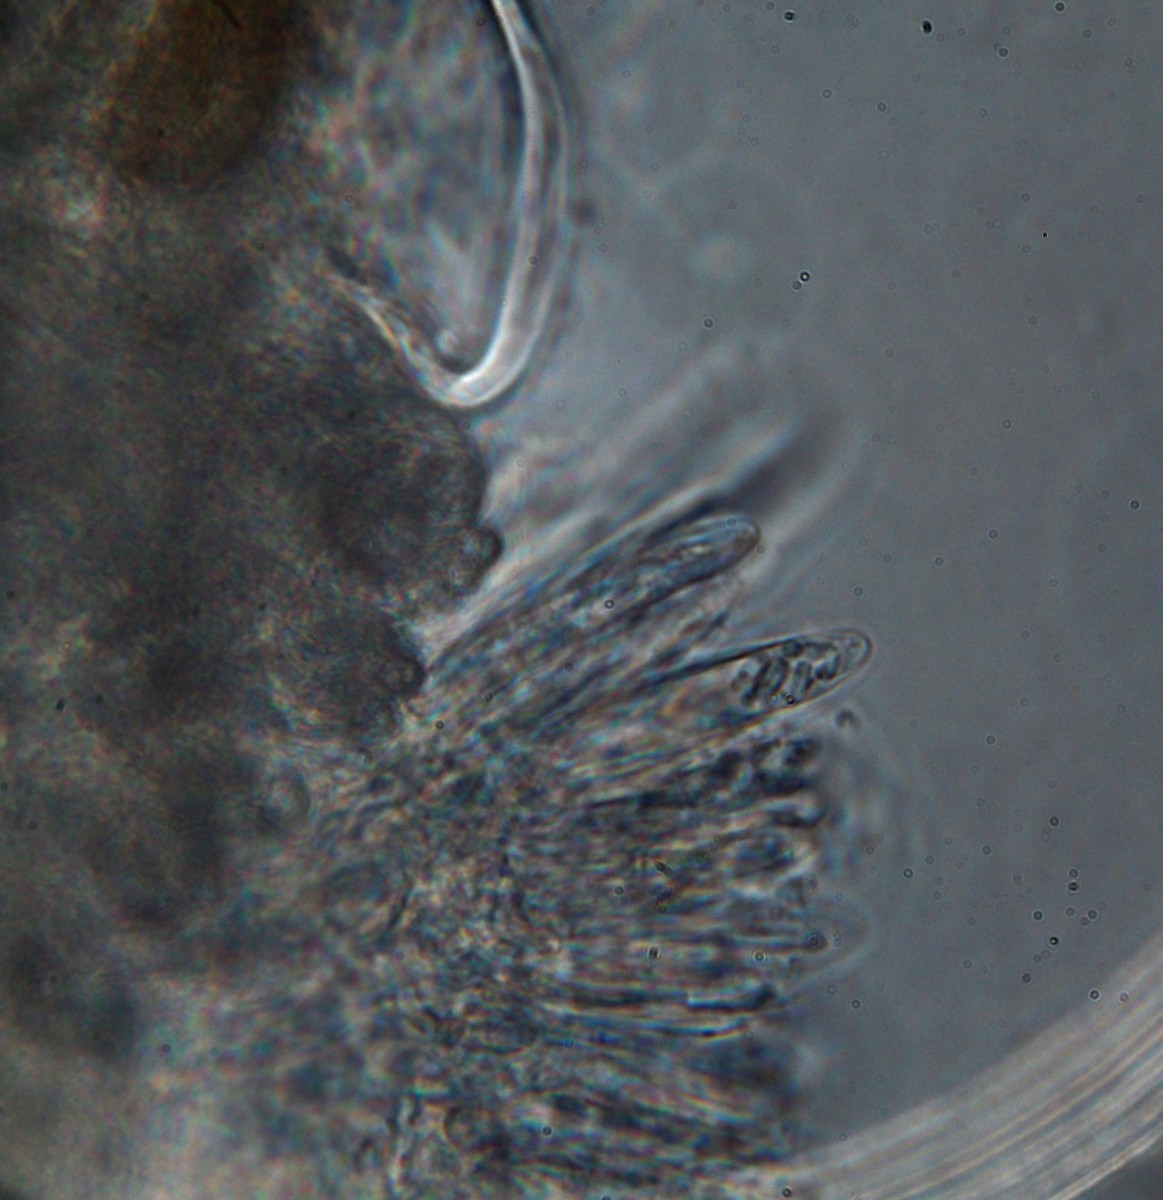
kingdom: Fungi
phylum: Ascomycota
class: Leotiomycetes
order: Helotiales
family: Hyaloscyphaceae
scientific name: Hyaloscyphaceae
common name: frynseskivefamilien
